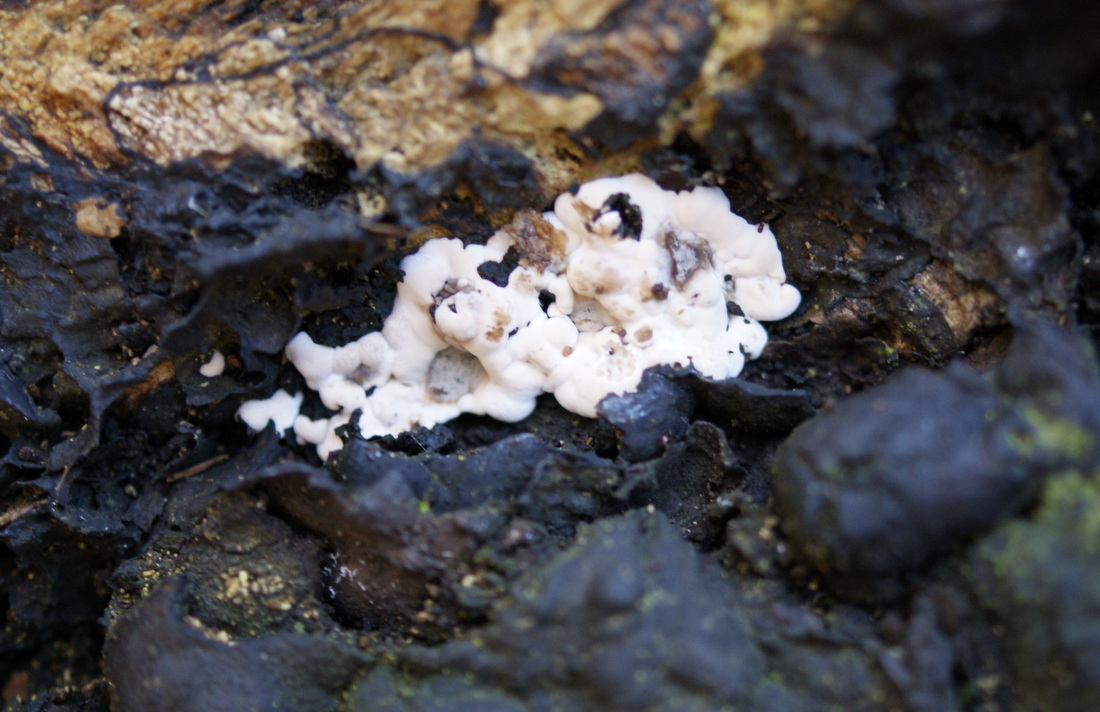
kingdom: Fungi
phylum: Ascomycota
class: Sordariomycetes
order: Xylariales
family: Xylariaceae
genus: Kretzschmaria
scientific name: Kretzschmaria deusta
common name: stor kulsvamp
